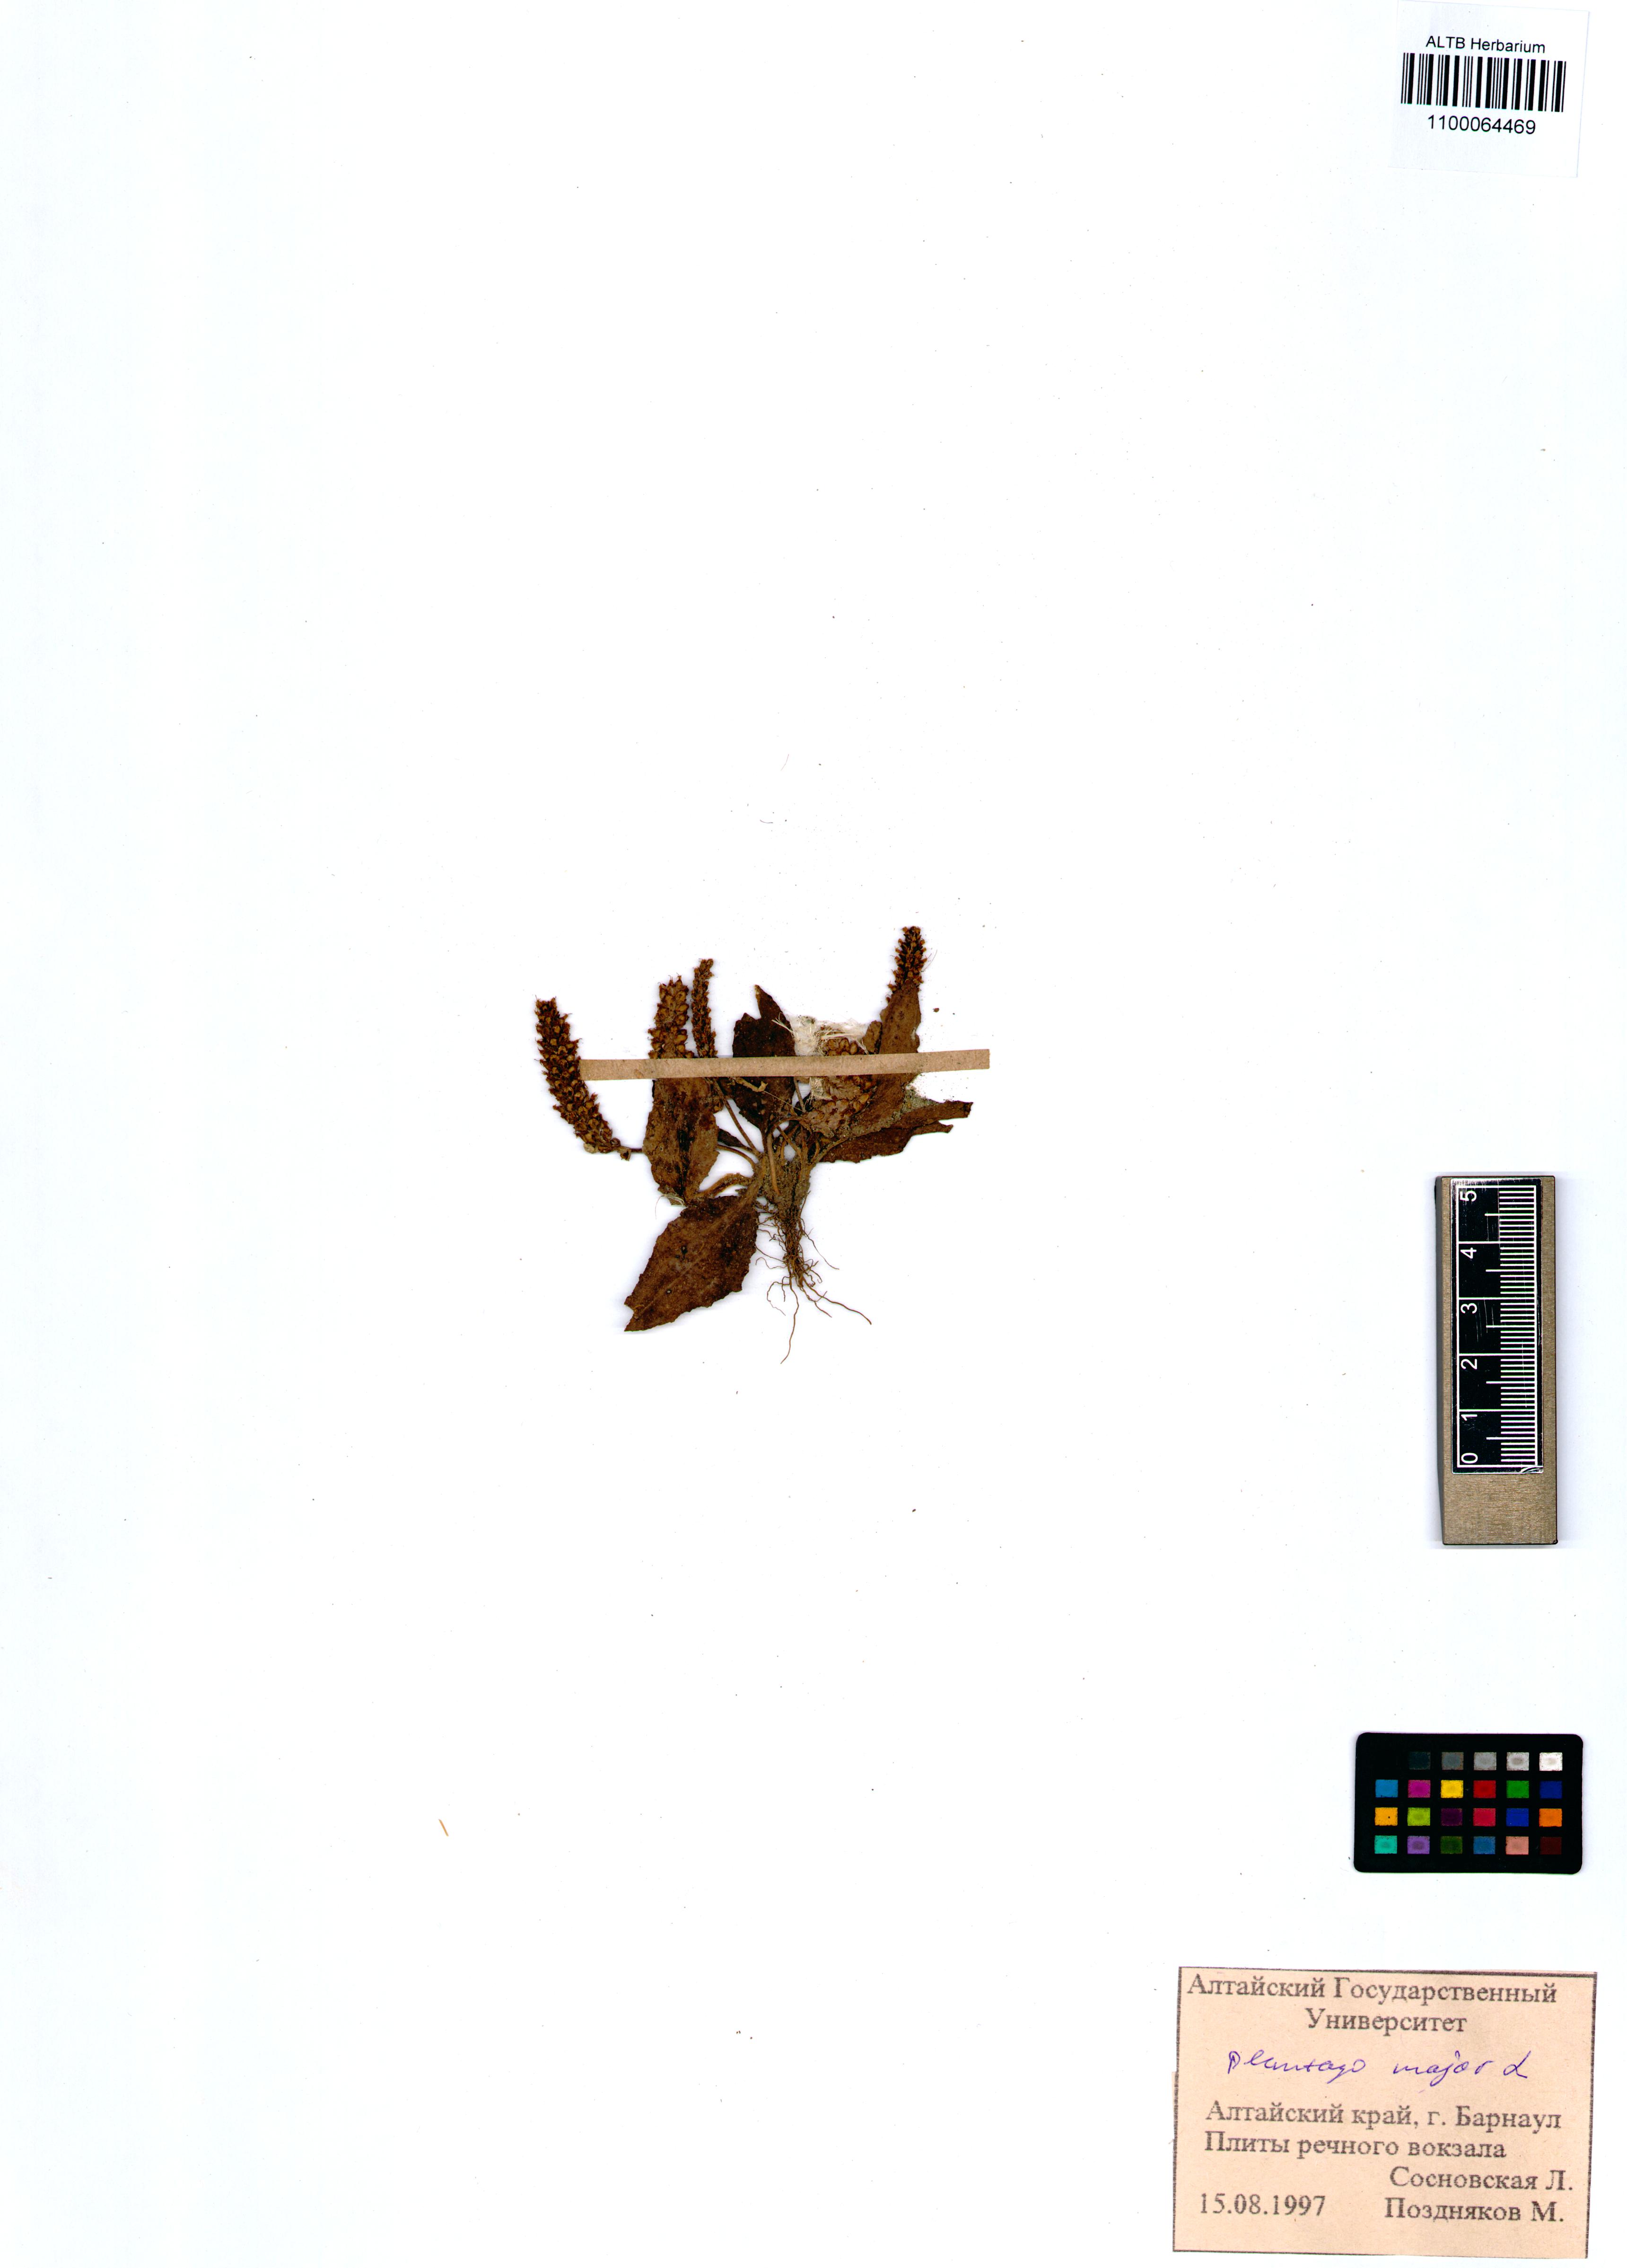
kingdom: Plantae
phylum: Tracheophyta
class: Magnoliopsida
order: Lamiales
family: Plantaginaceae
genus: Plantago
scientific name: Plantago major
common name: Common plantain
